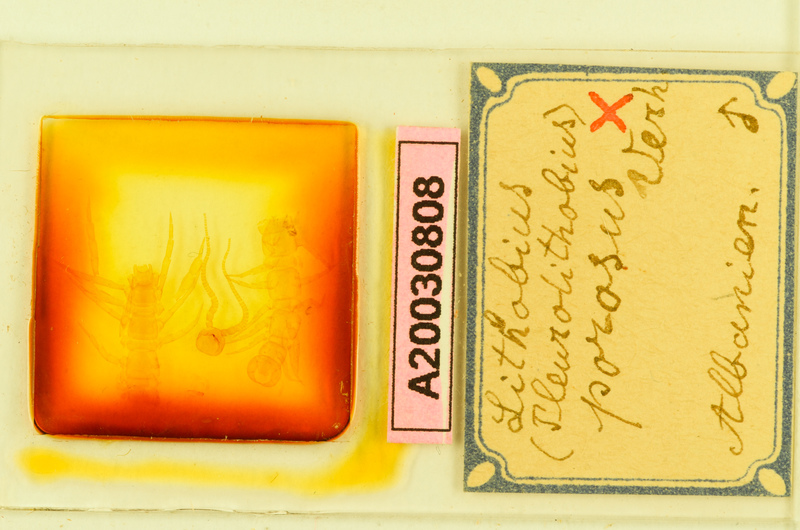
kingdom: Animalia
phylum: Arthropoda
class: Chilopoda
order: Lithobiomorpha
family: Lithobiidae
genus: Lithobius
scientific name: Lithobius
